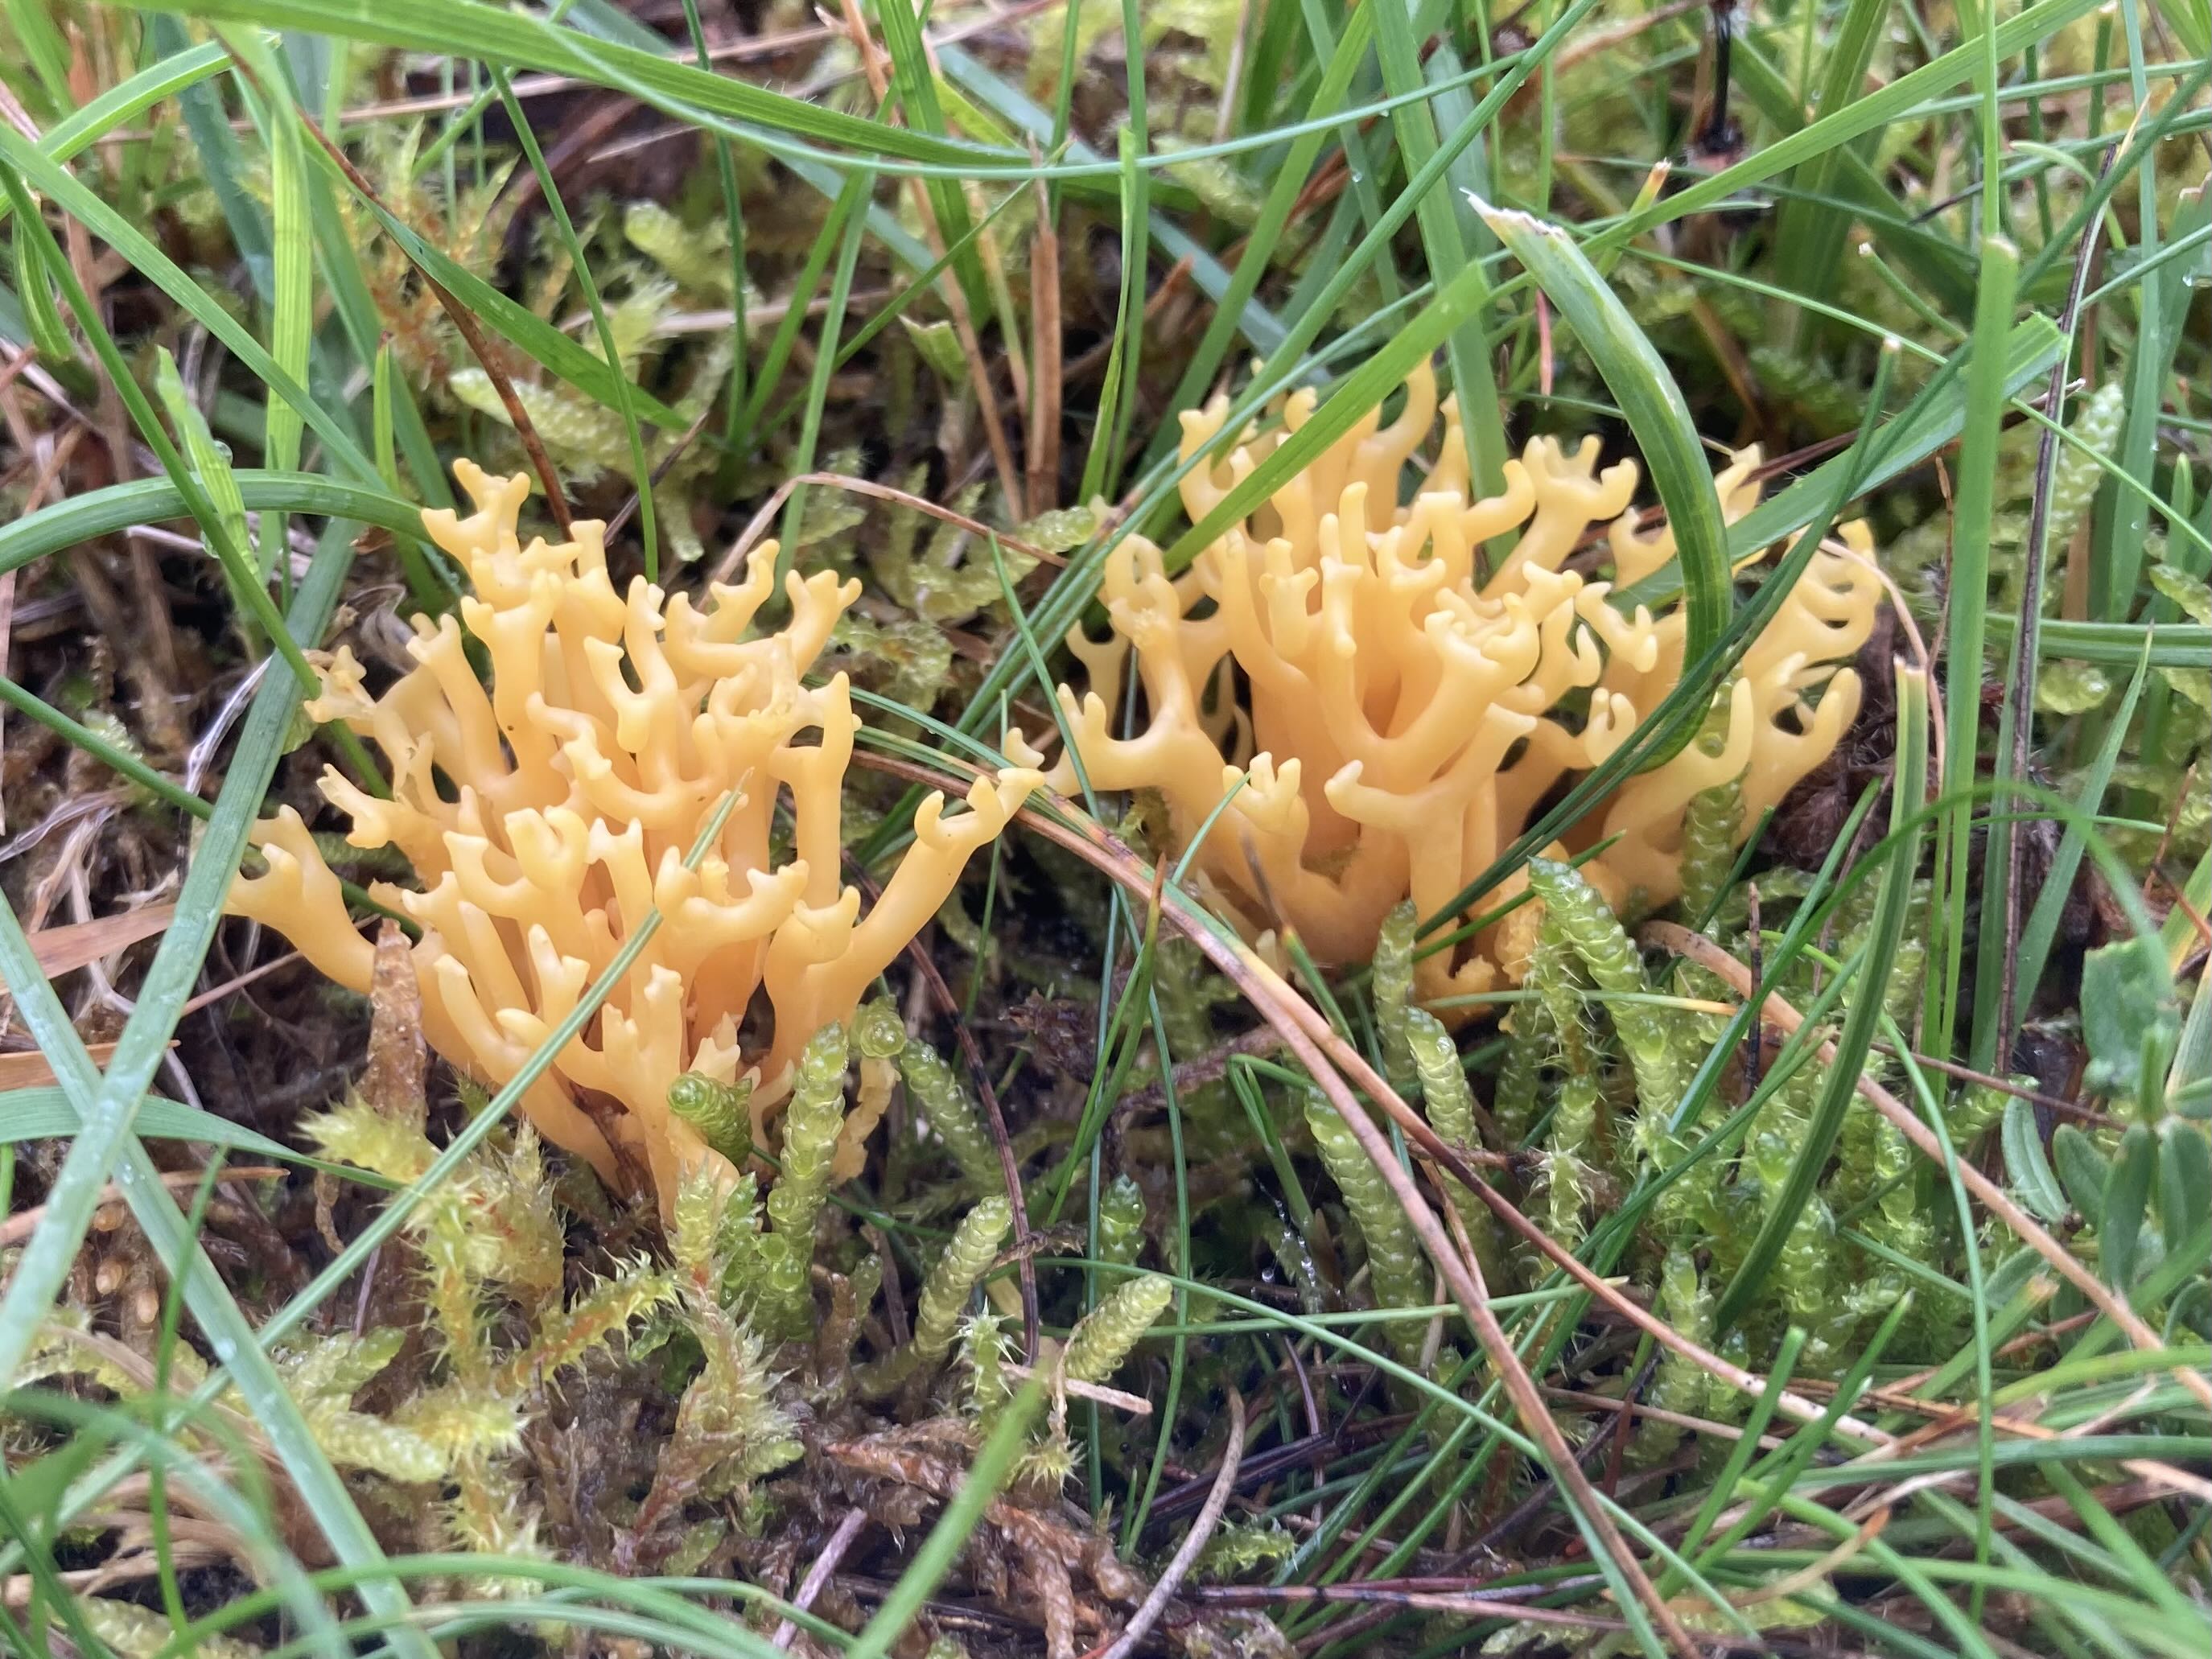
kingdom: Fungi
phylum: Basidiomycota
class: Agaricomycetes
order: Agaricales
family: Clavariaceae
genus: Clavulinopsis
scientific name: Clavulinopsis corniculata
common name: eng-køllesvamp
